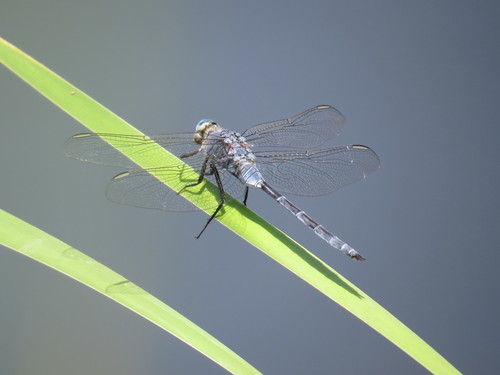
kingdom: Animalia
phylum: Arthropoda
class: Insecta
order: Odonata
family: Libellulidae
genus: Orthetrum
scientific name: Orthetrum trinacria
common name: Long skimmer
